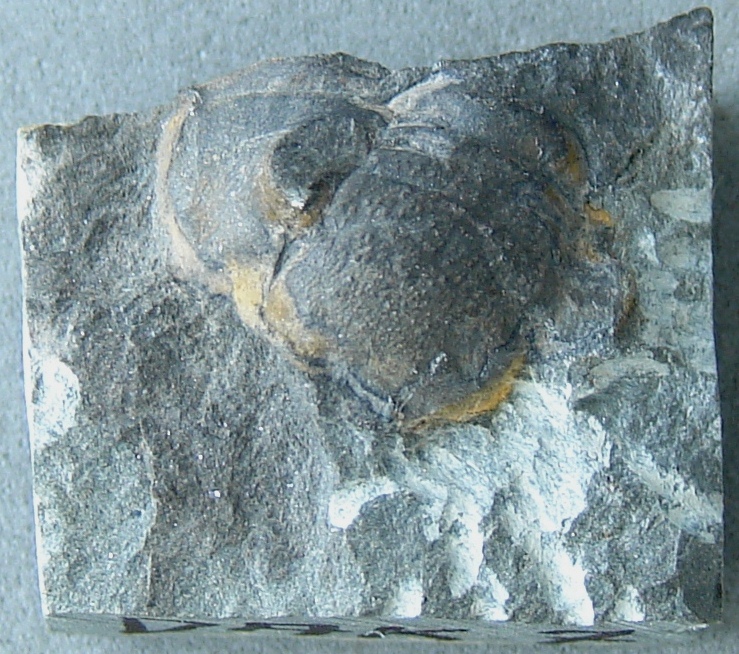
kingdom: Animalia
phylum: Arthropoda
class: Trilobita
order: Phacopida
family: Acastidae
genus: Acastoides
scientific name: Acastoides
